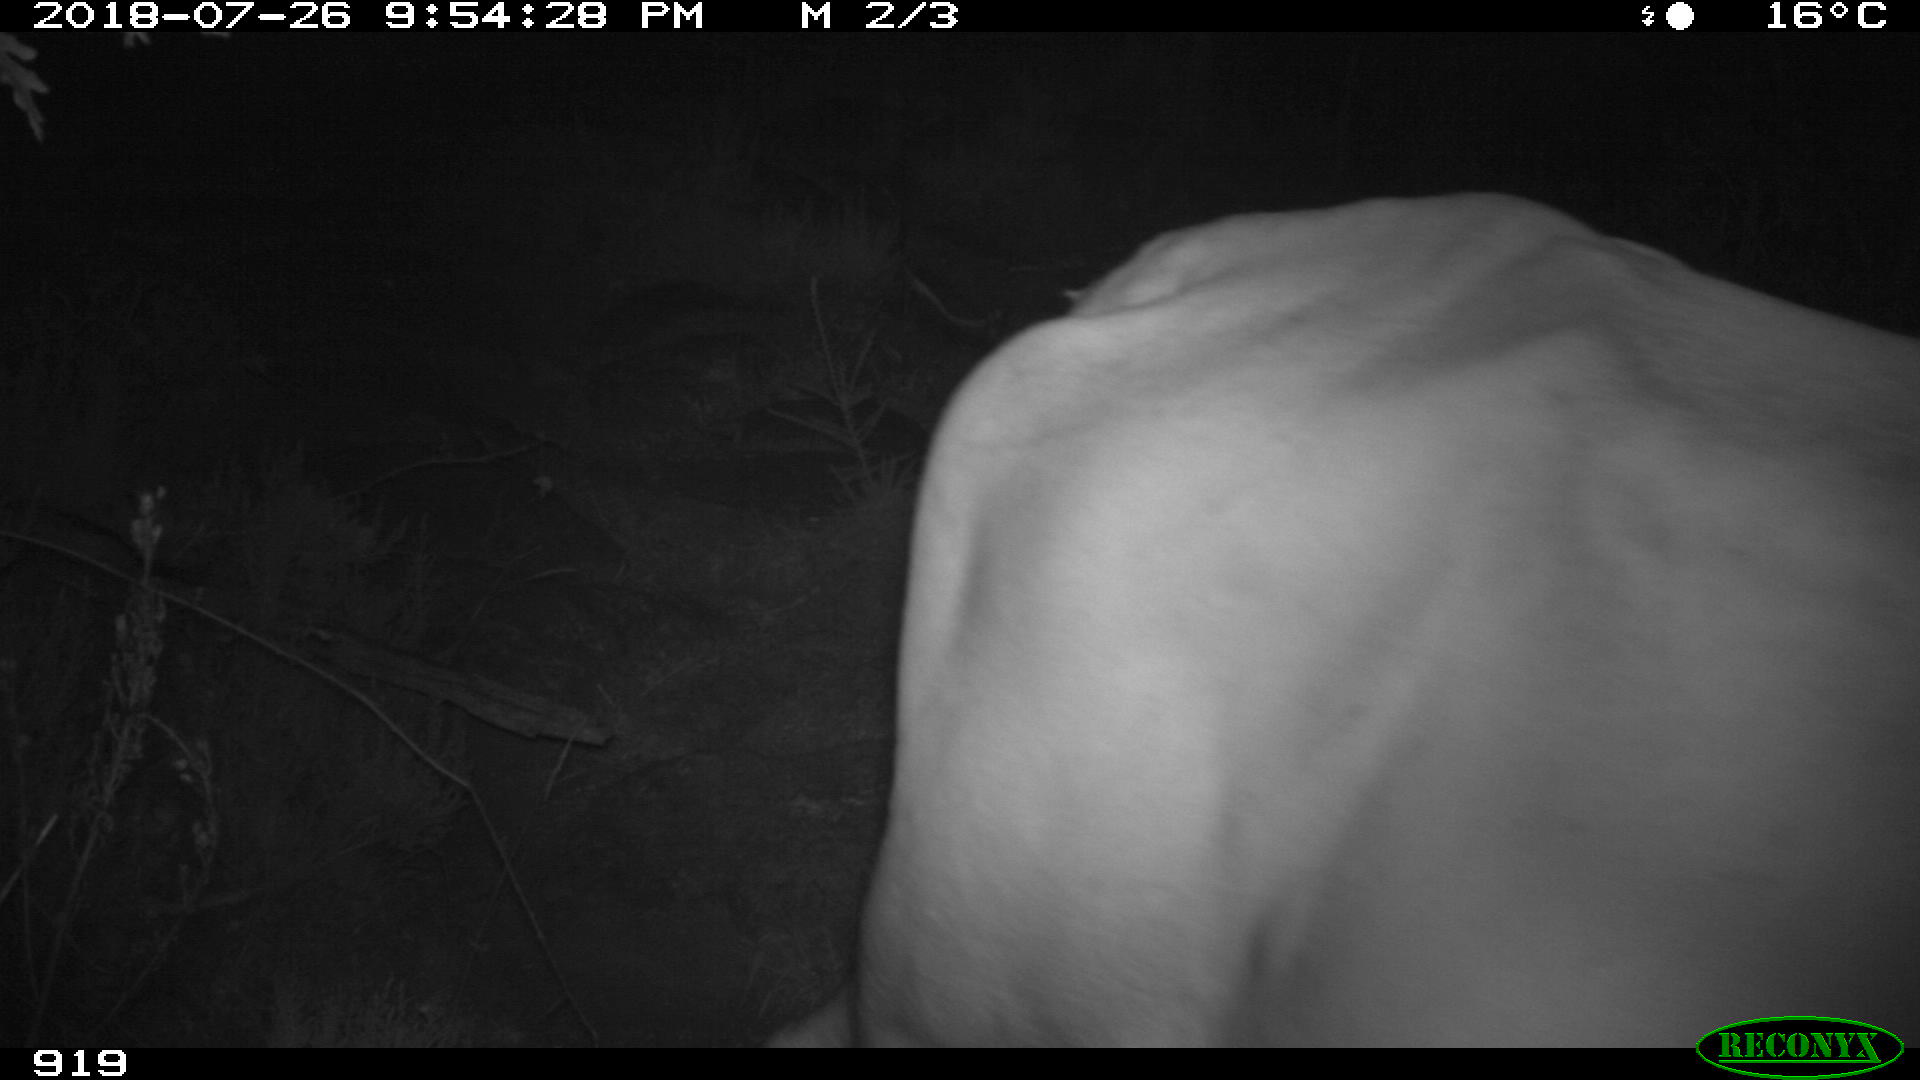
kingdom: Animalia
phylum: Chordata
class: Mammalia
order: Artiodactyla
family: Bovidae
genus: Bos
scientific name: Bos taurus
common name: Domesticated cattle
